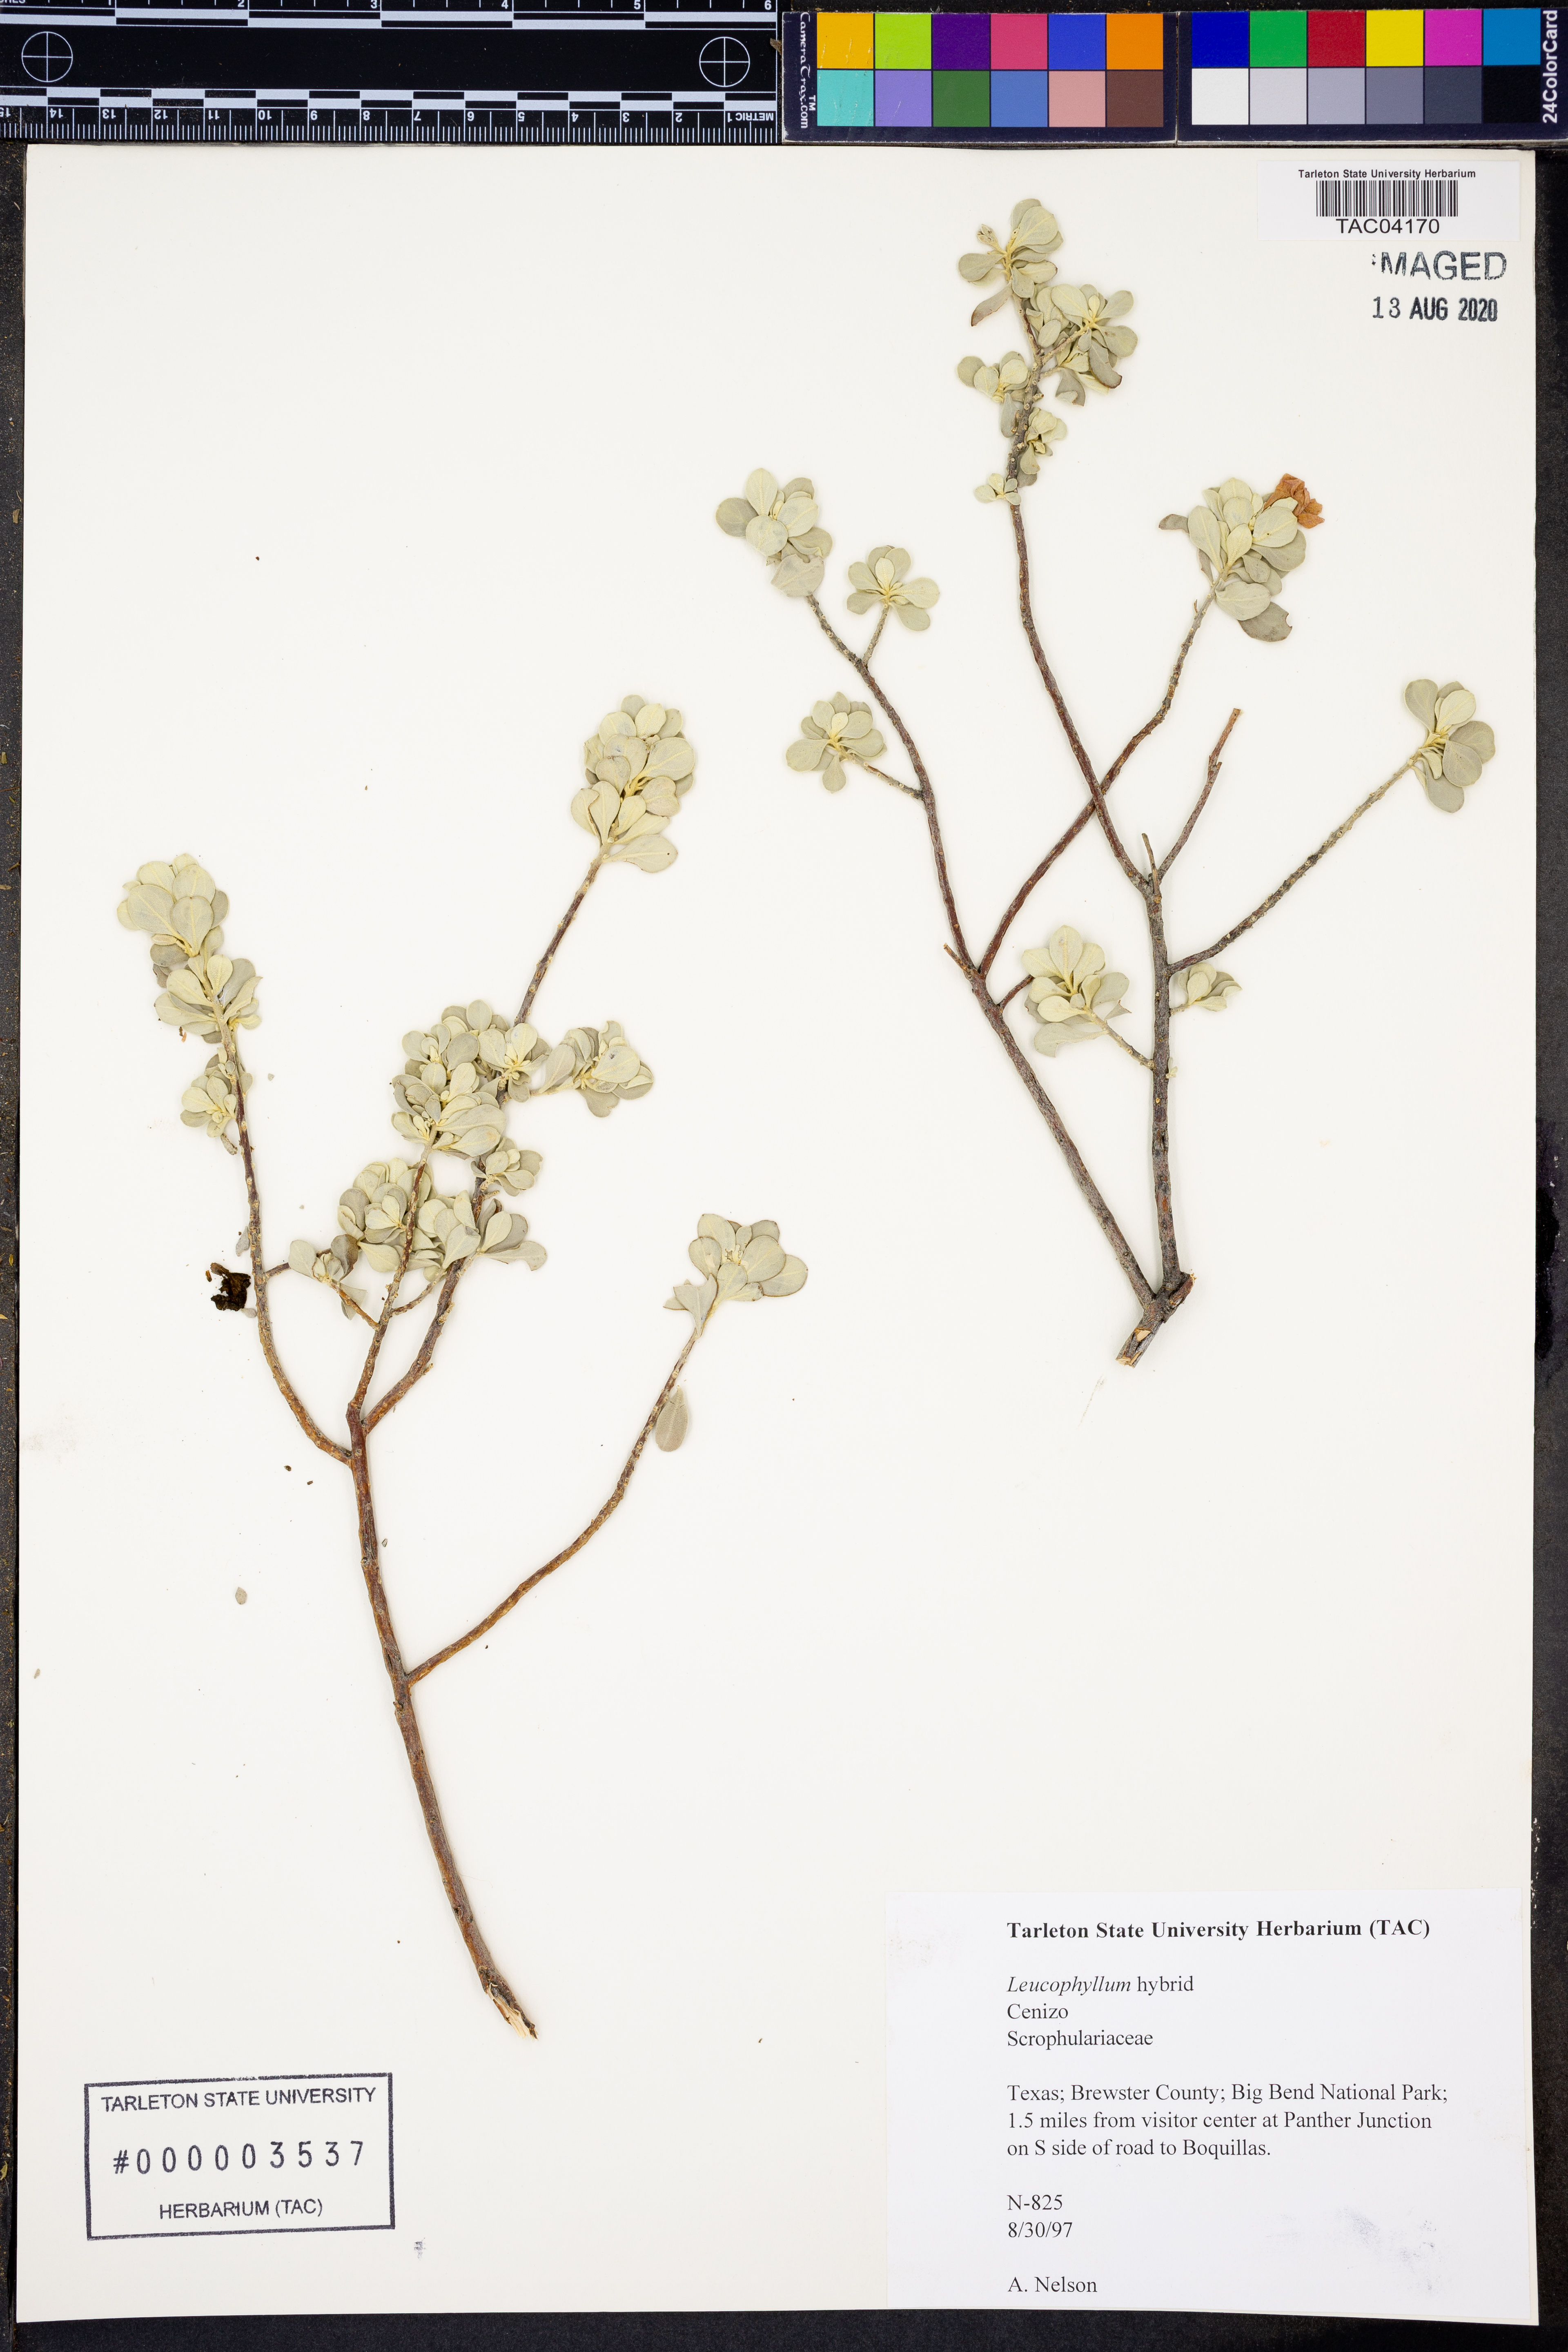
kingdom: Plantae
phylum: Tracheophyta
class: Magnoliopsida
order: Lamiales
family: Scrophulariaceae
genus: Leucophyllum
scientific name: Leucophyllum
